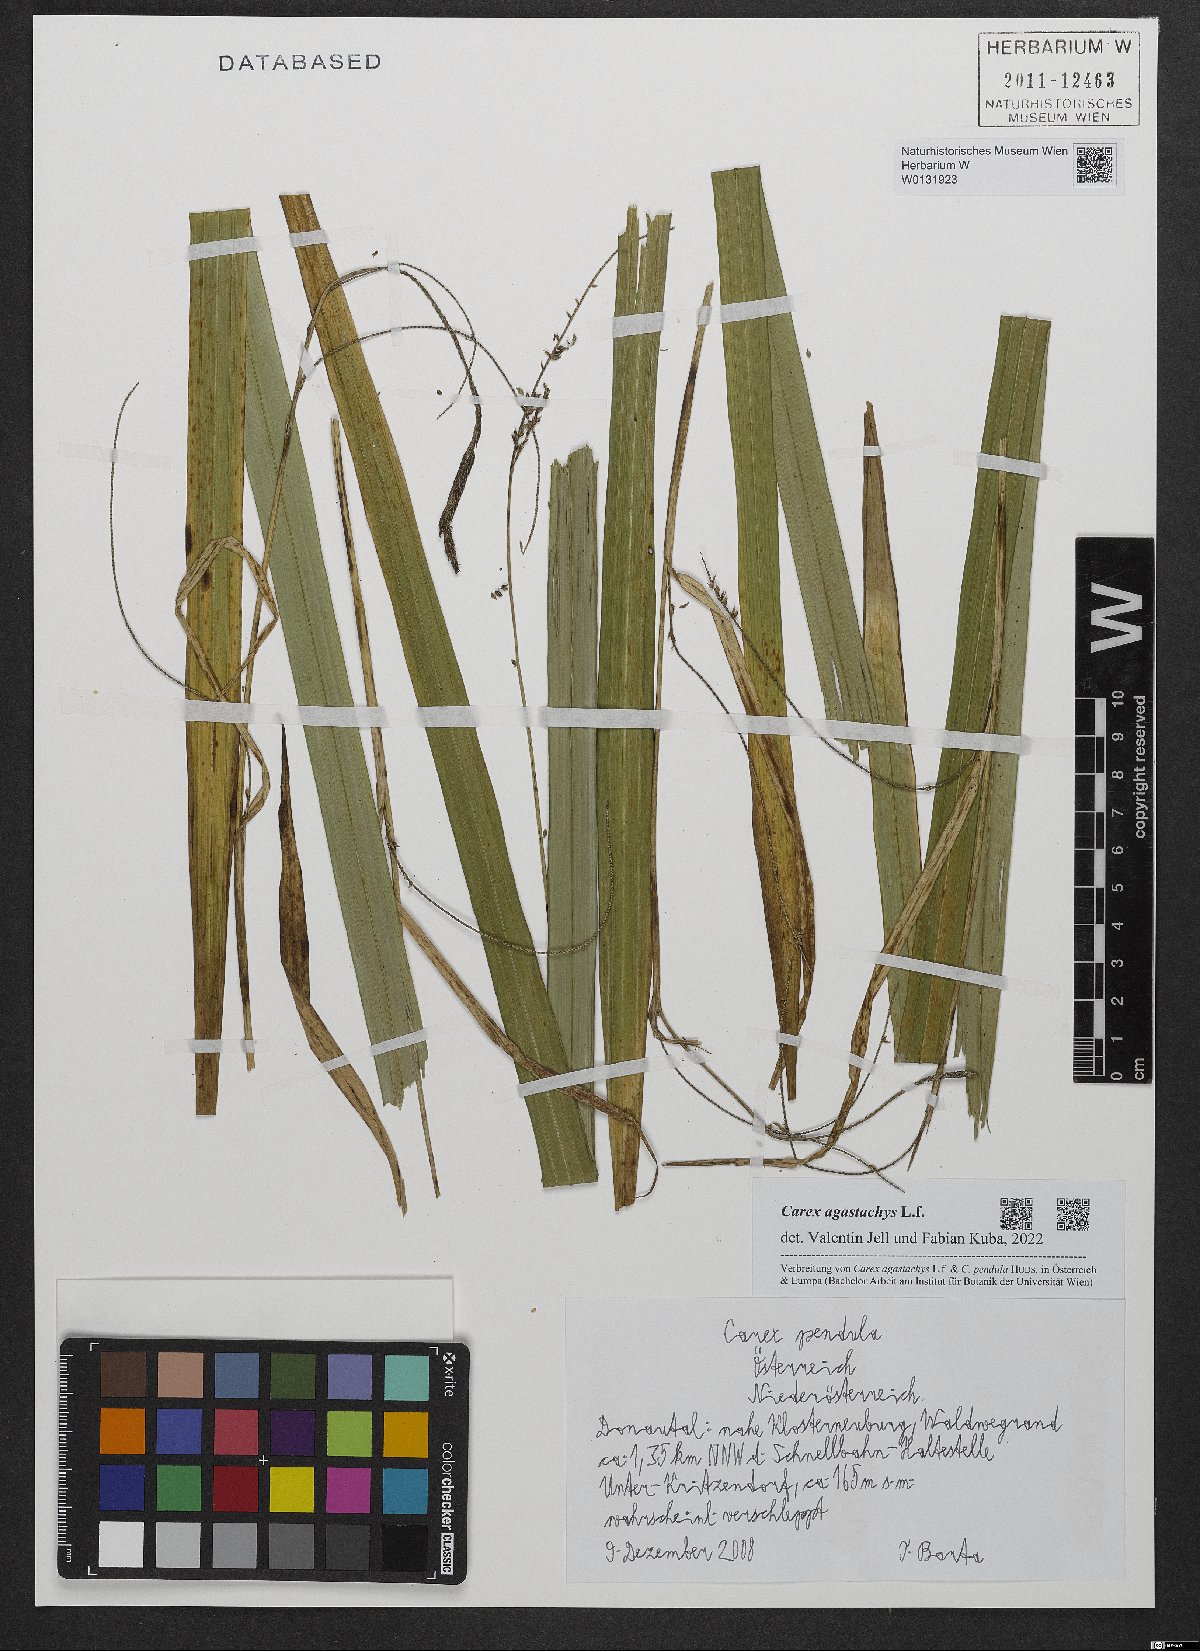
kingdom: Plantae
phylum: Tracheophyta
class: Liliopsida
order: Poales
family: Cyperaceae
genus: Carex
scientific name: Carex agastachys
